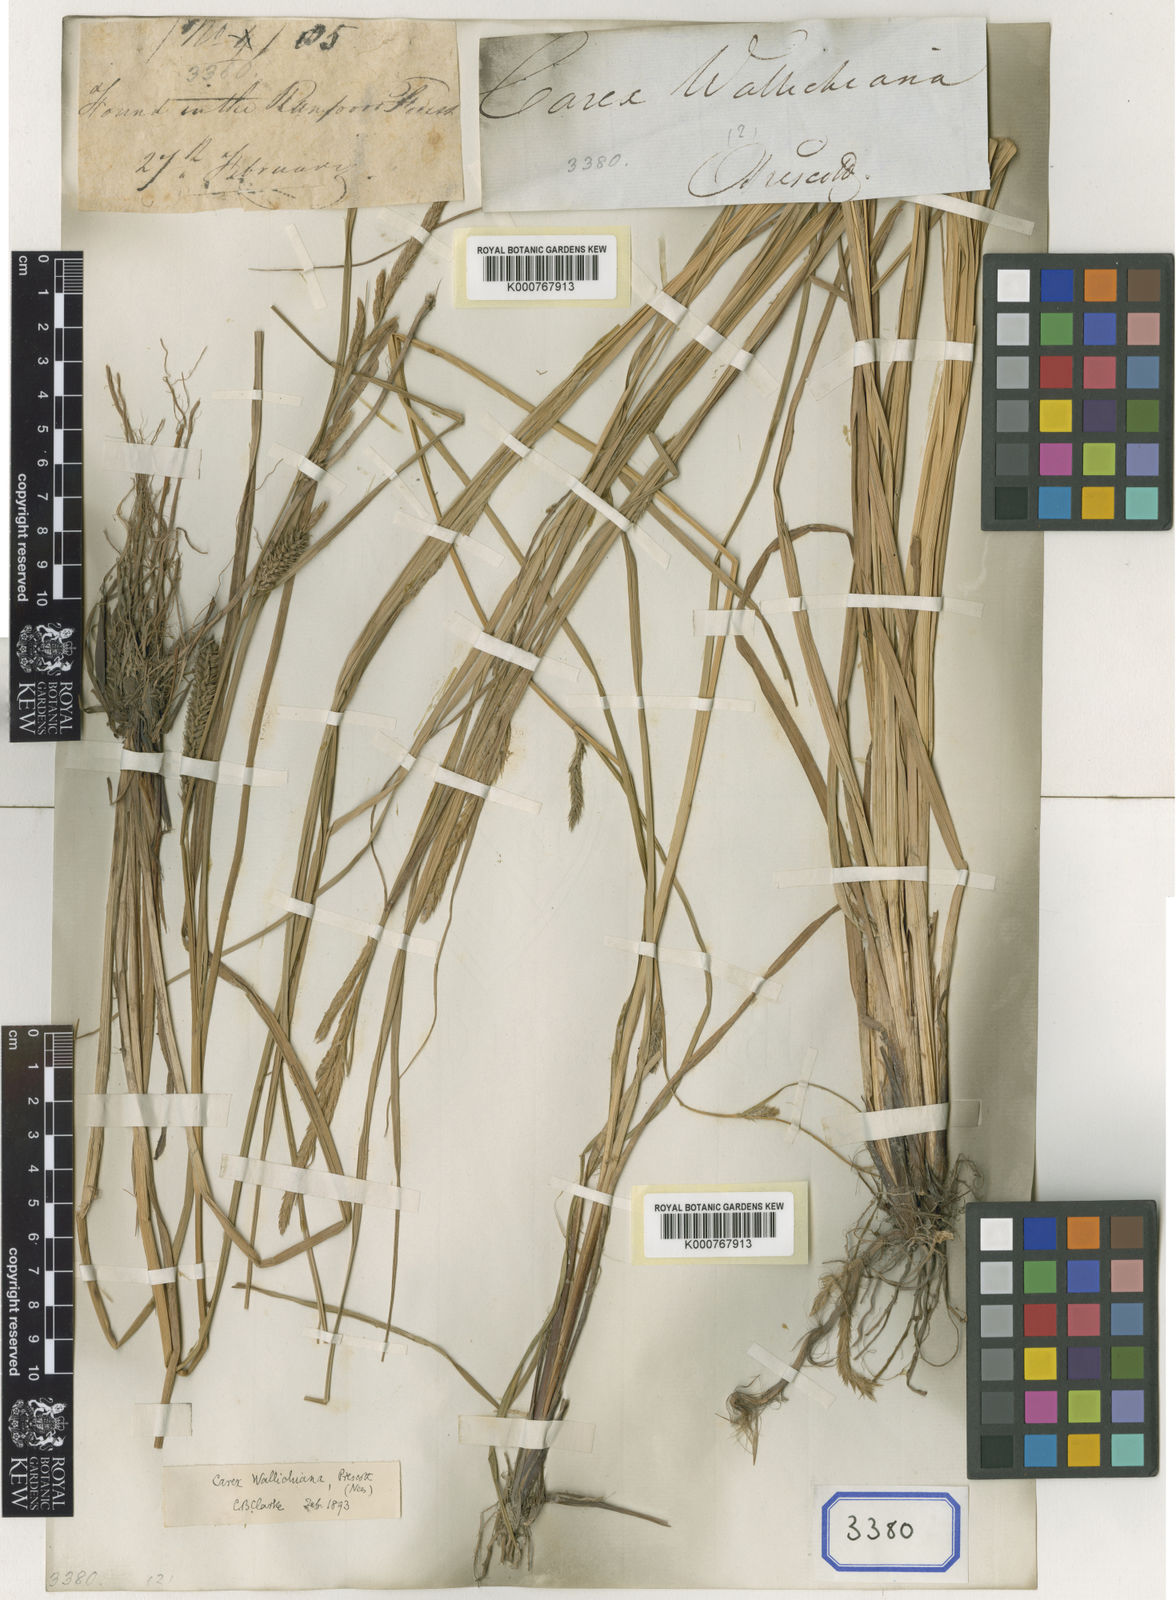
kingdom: Plantae
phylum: Tracheophyta
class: Liliopsida
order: Poales
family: Cyperaceae
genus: Carex
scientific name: Carex
